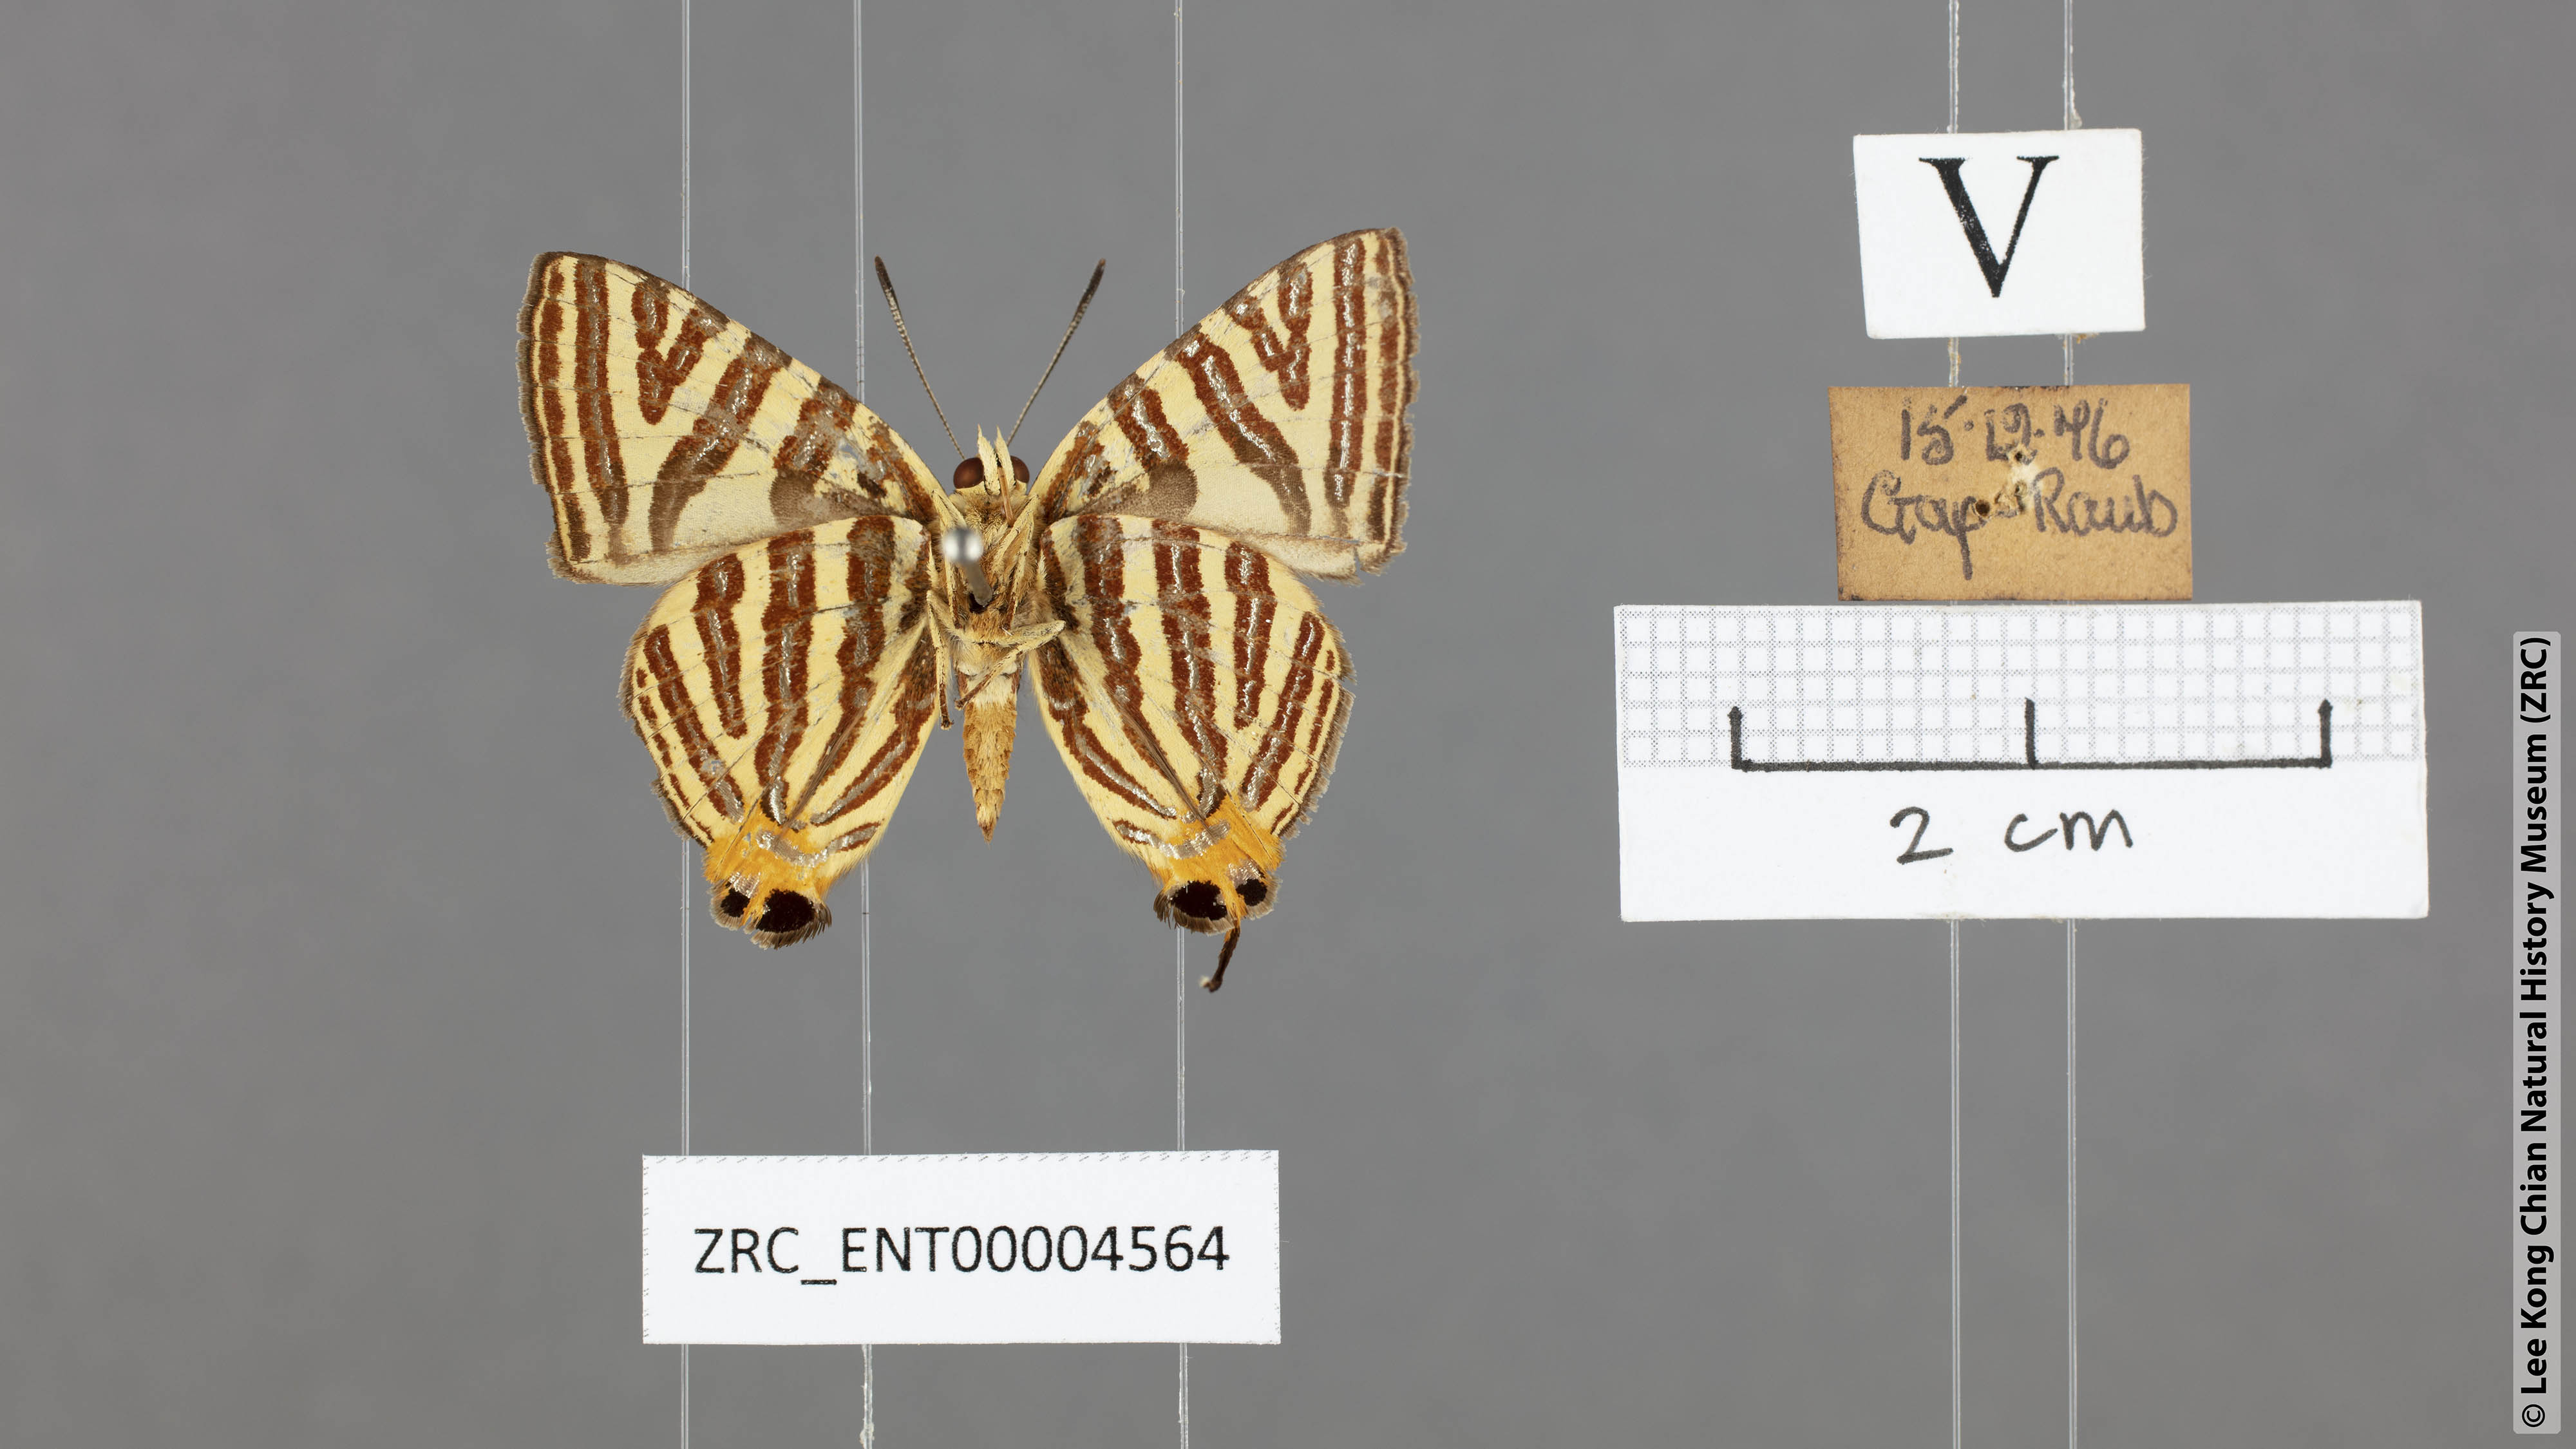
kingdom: Animalia
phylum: Arthropoda
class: Insecta
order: Lepidoptera
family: Lycaenidae
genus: Spindasis
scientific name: Spindasis seliga
